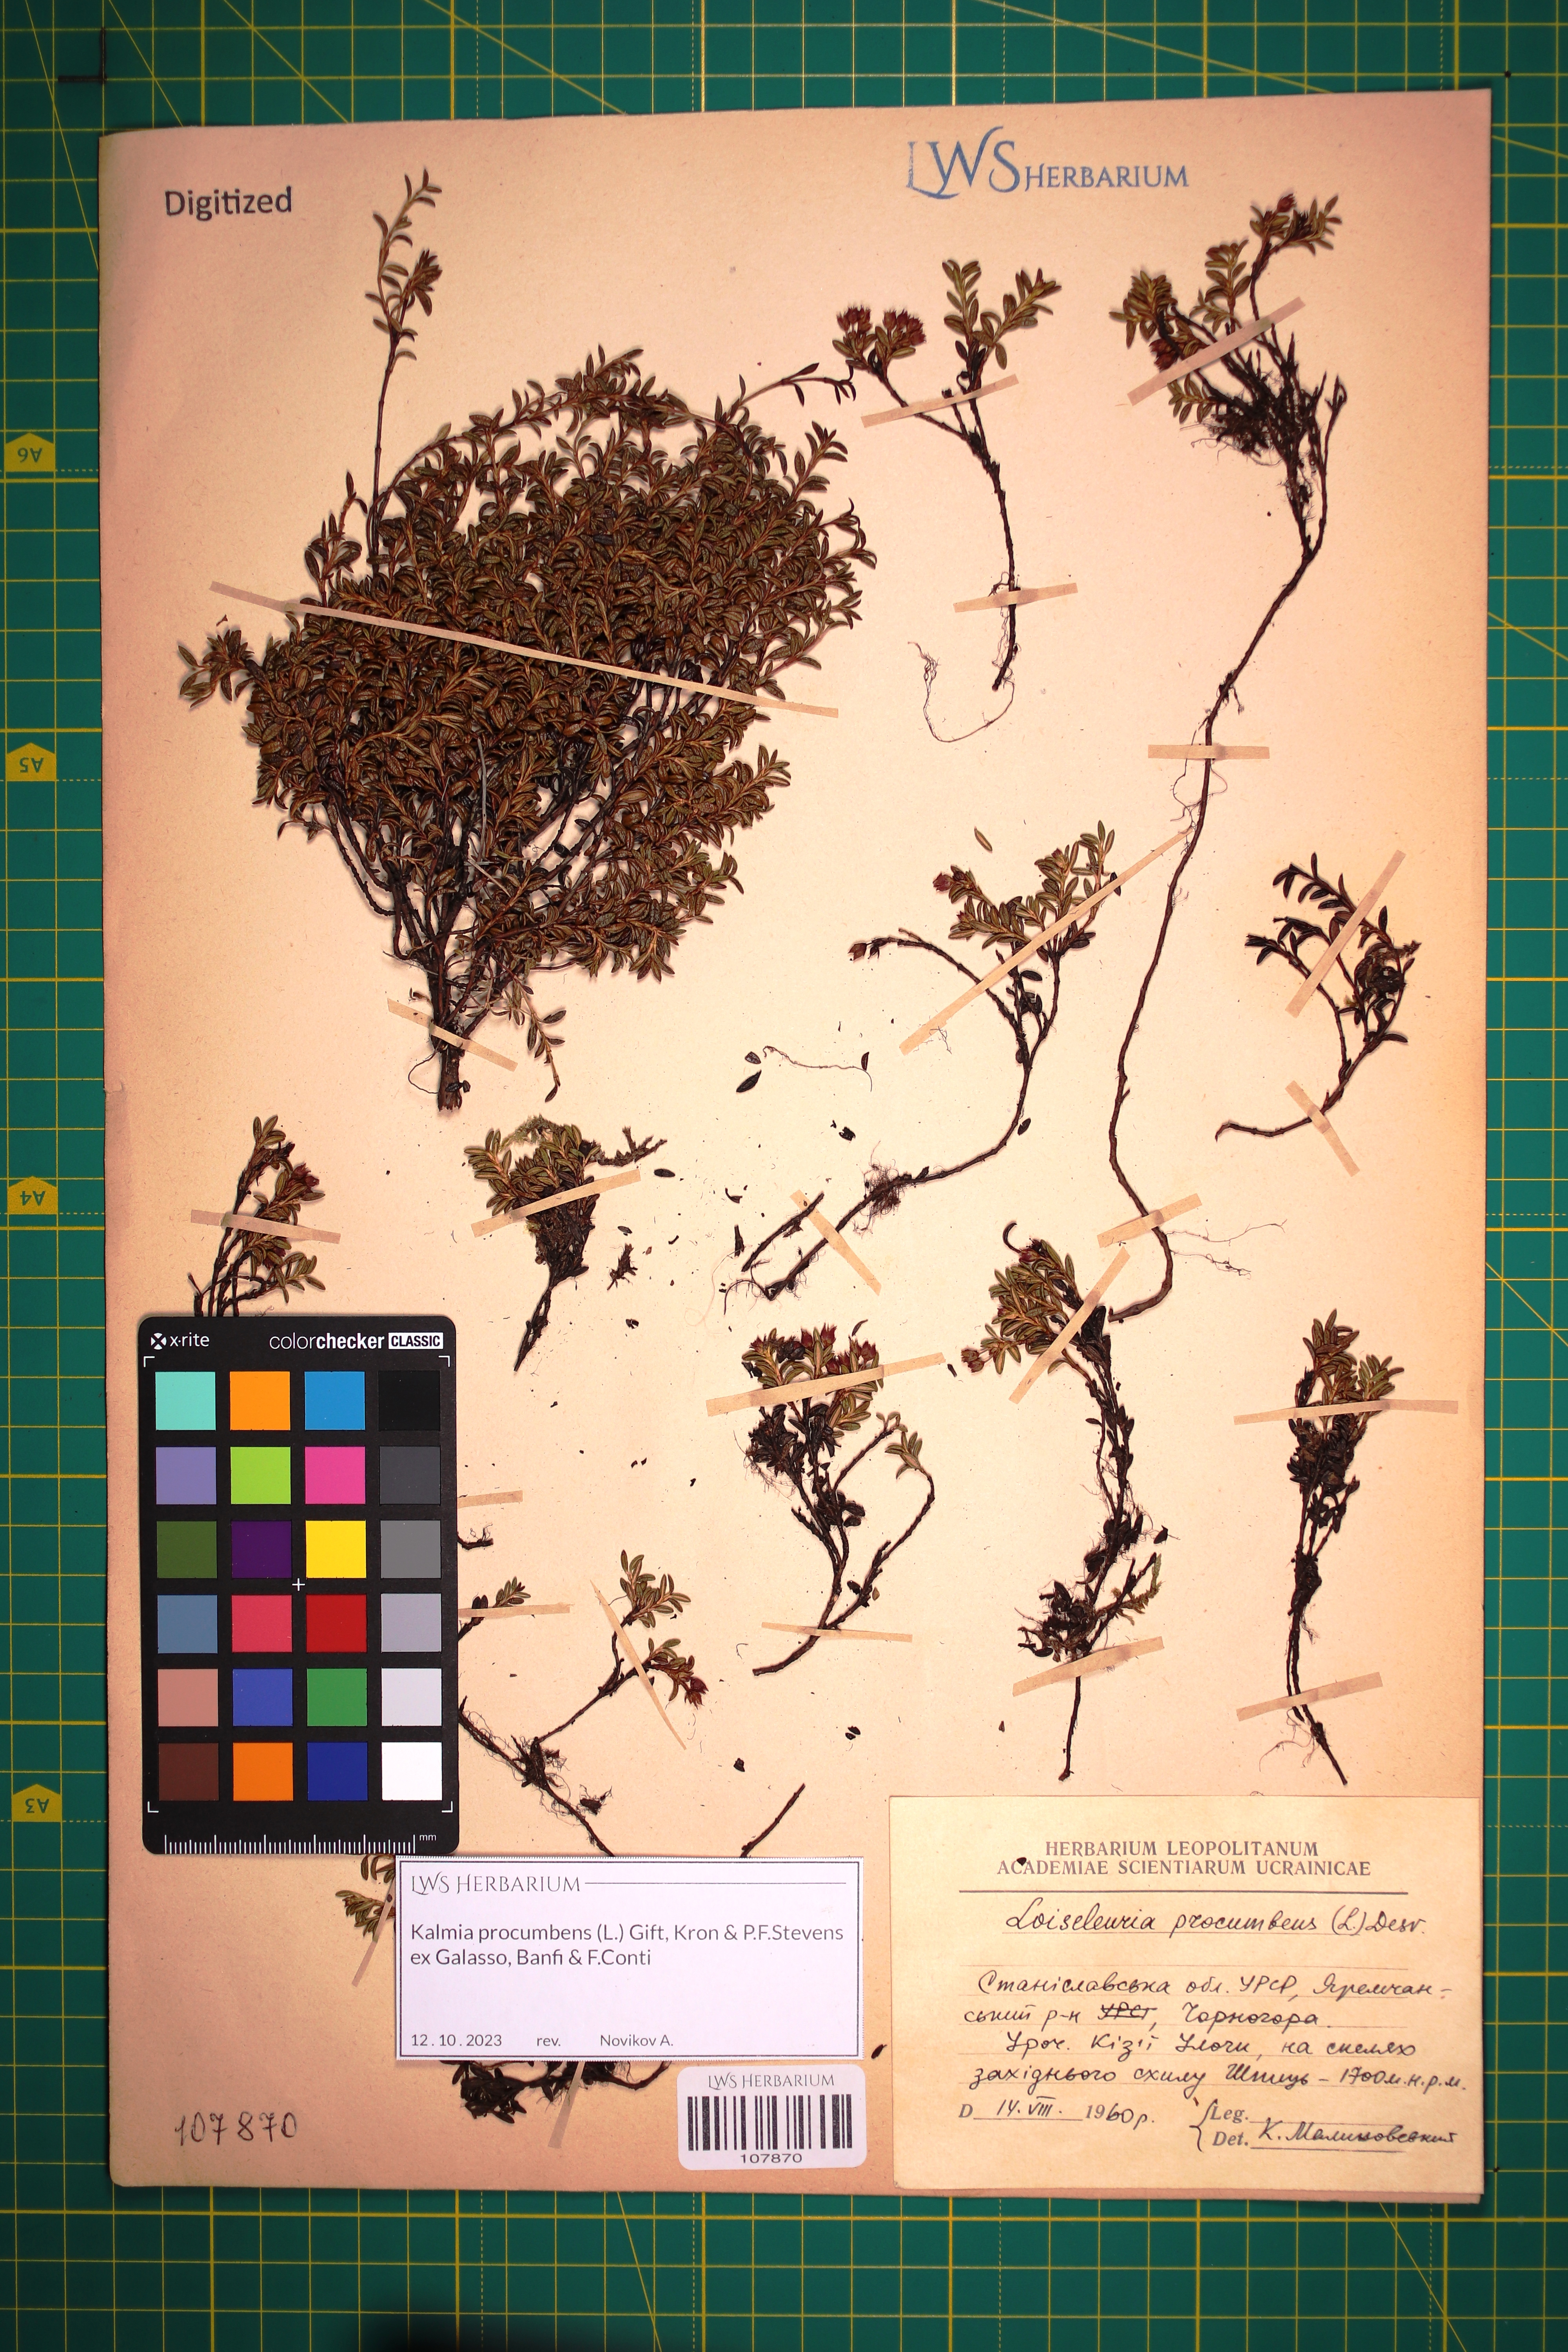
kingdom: Plantae
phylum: Tracheophyta
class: Magnoliopsida
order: Ericales
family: Ericaceae
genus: Kalmia
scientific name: Kalmia procumbens
